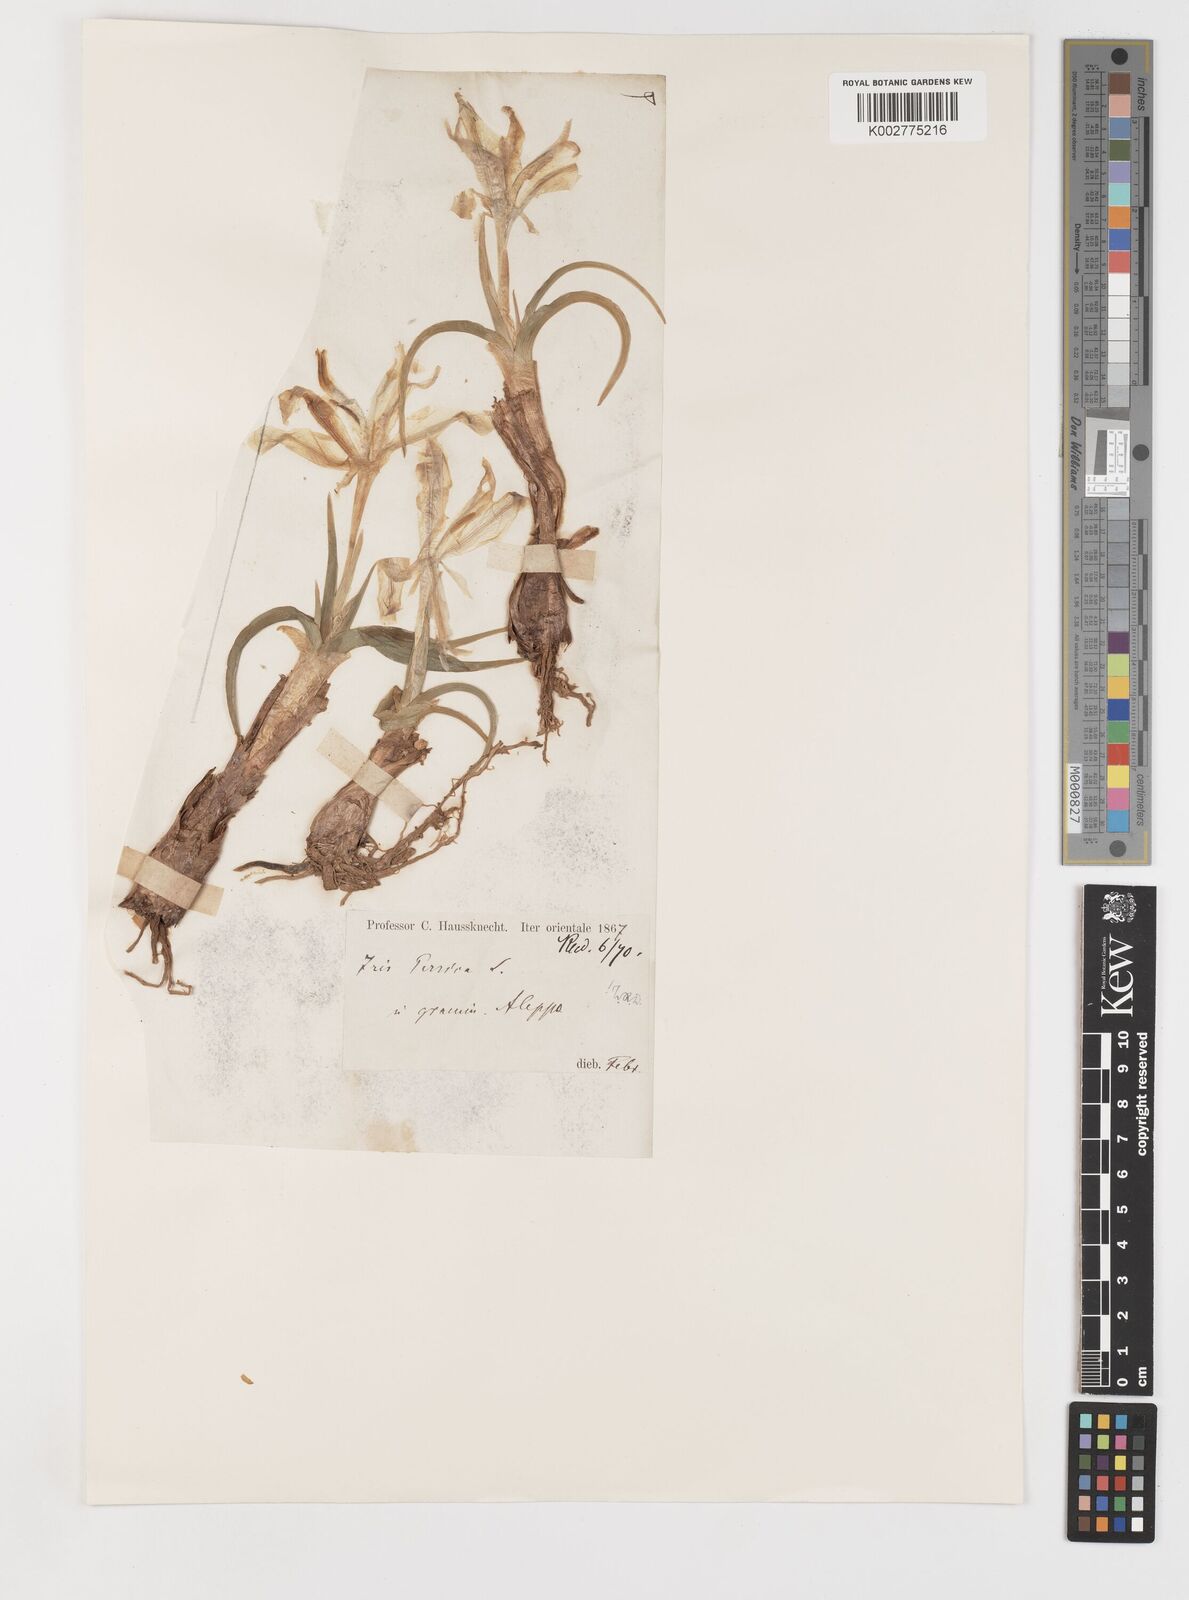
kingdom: Plantae
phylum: Tracheophyta
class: Liliopsida
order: Asparagales
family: Iridaceae
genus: Iris
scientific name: Iris persica
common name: Persian iris
